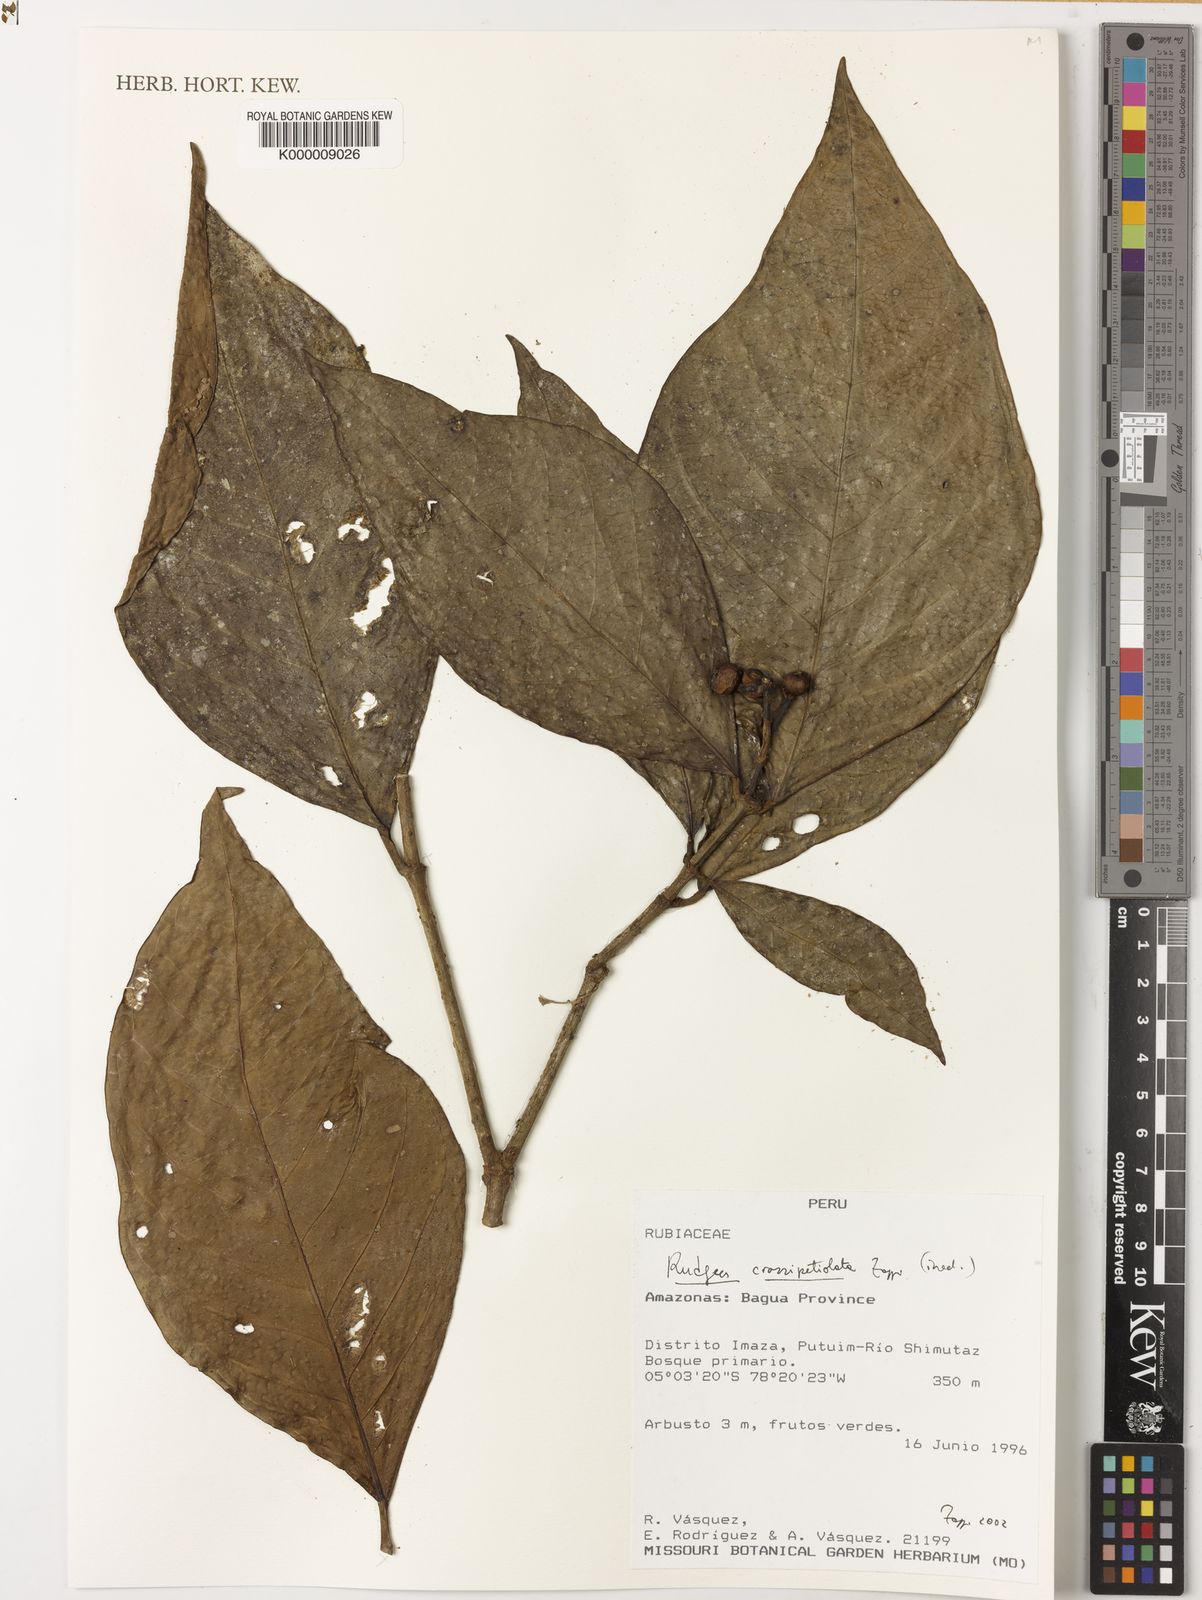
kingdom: Plantae
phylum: Tracheophyta
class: Magnoliopsida
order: Gentianales
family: Rubiaceae
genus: Rudgea
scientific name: Rudgea crassipetiolata
